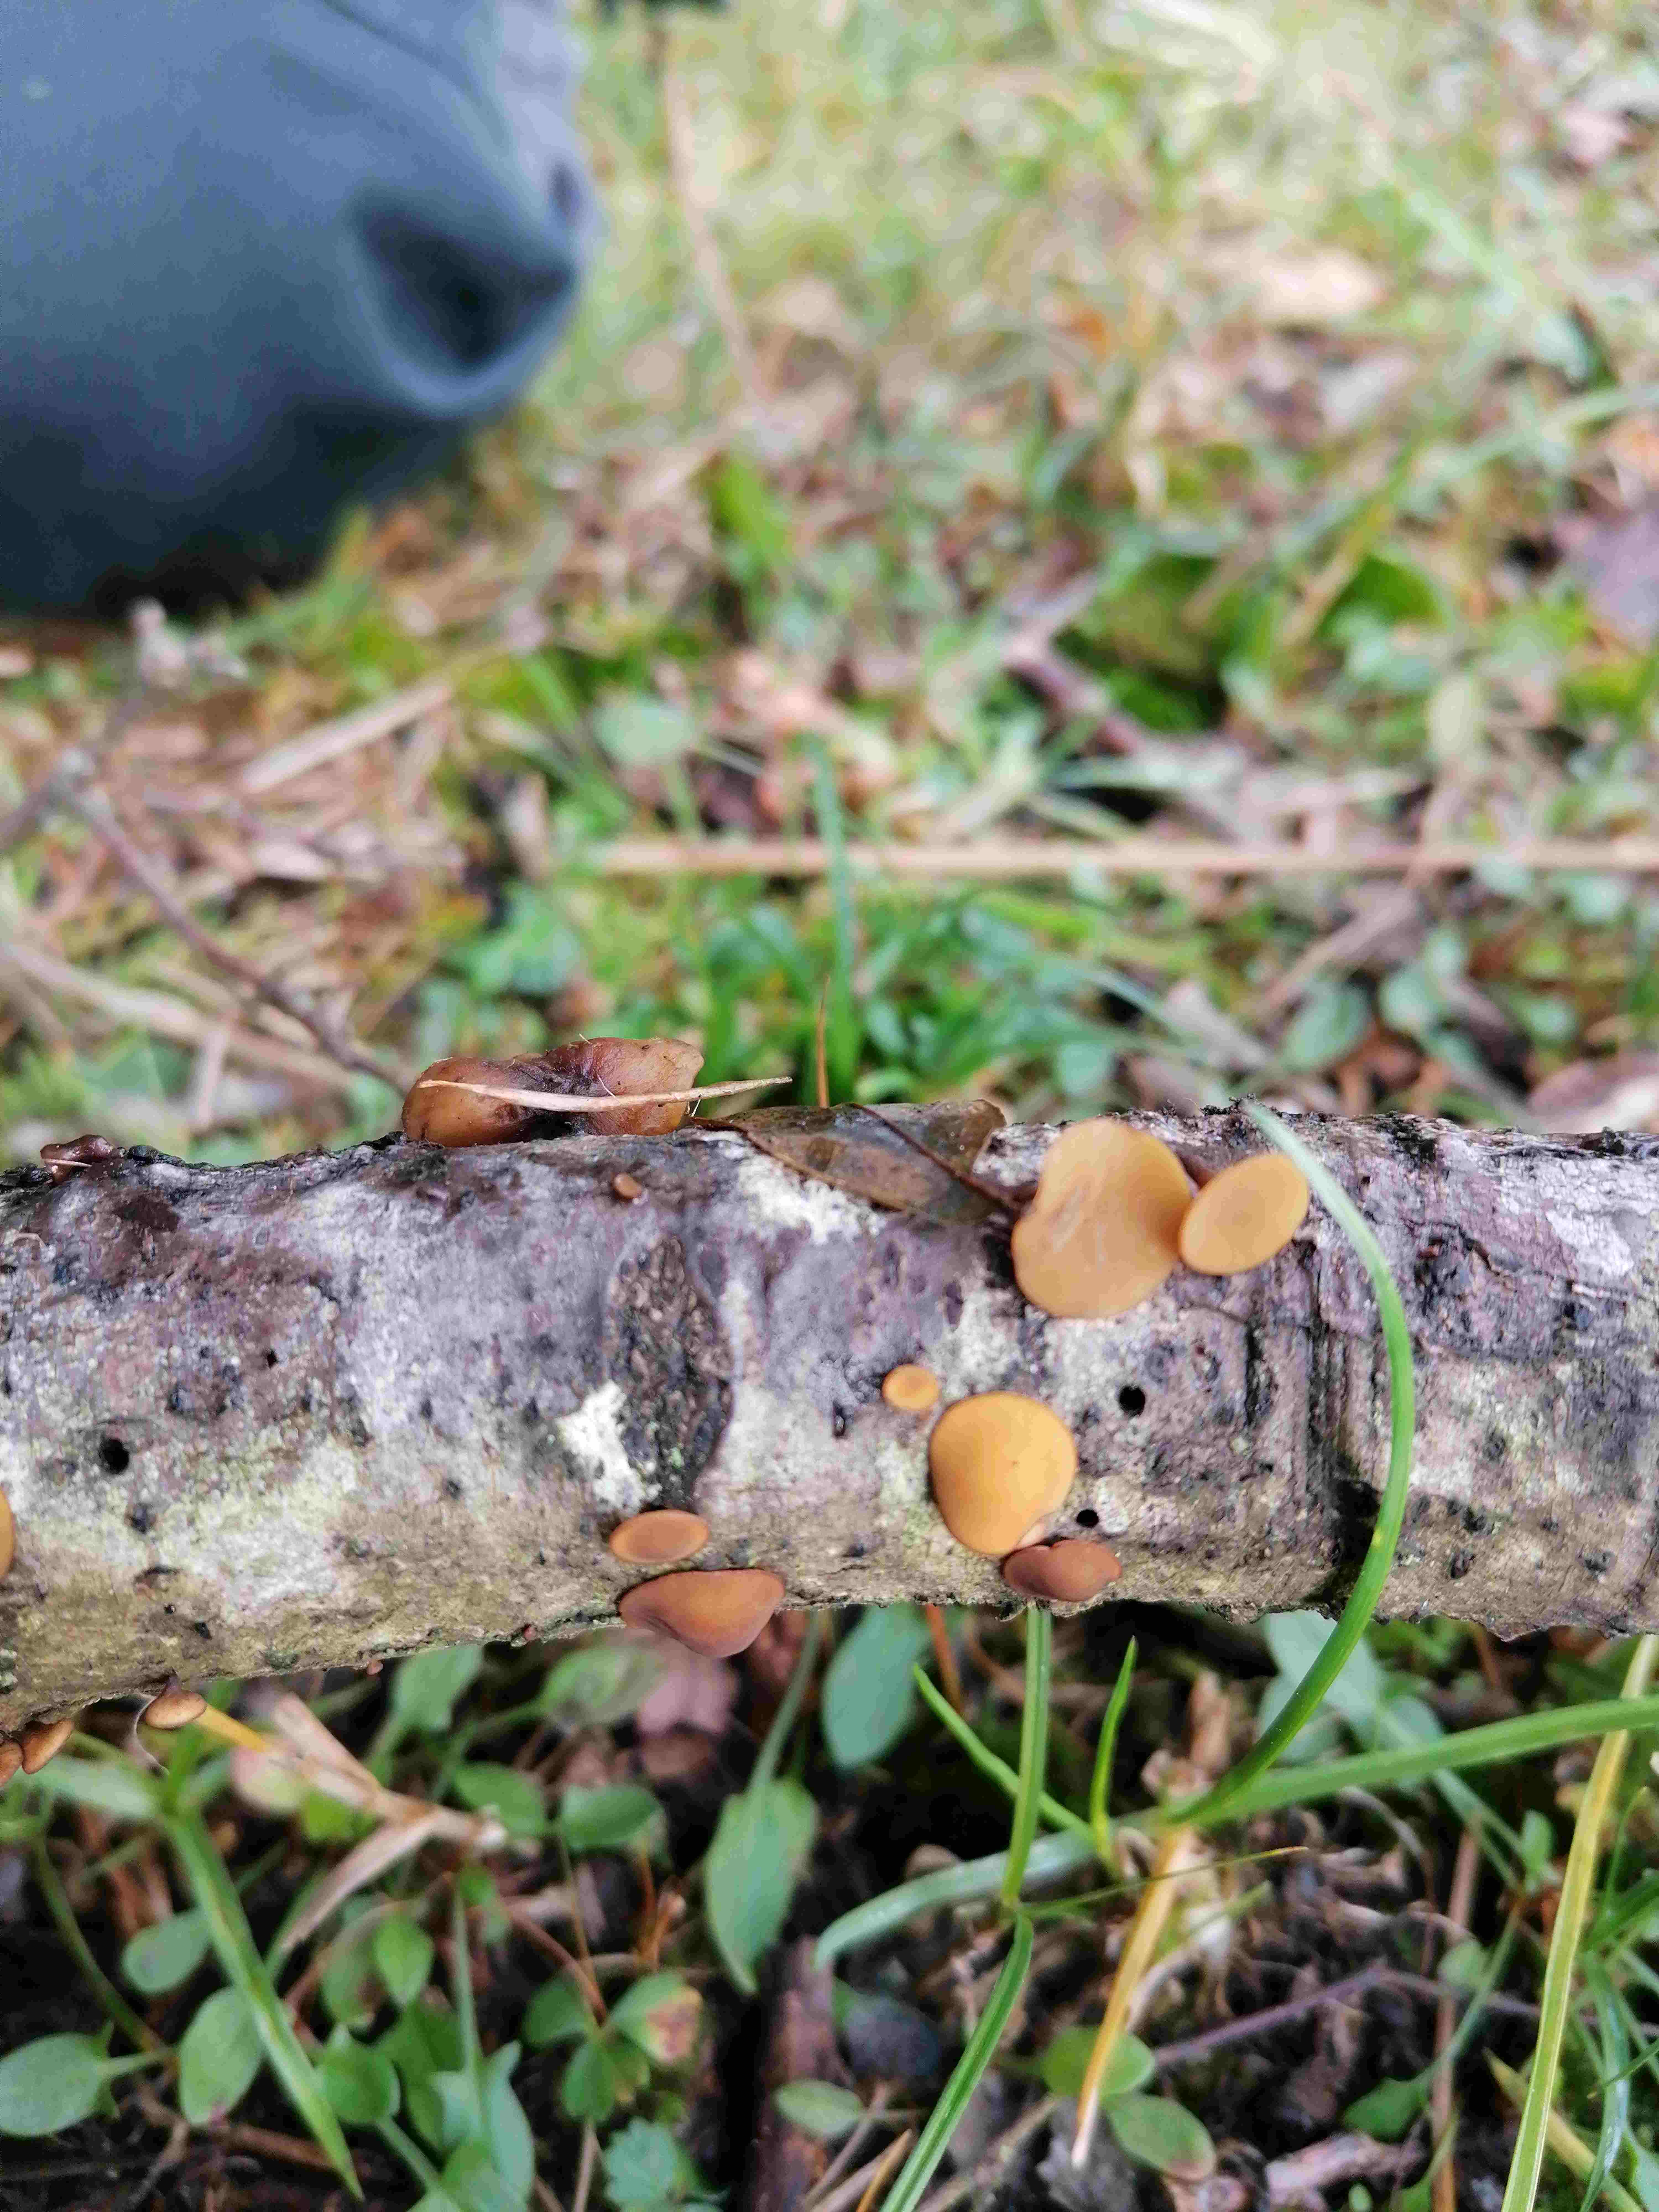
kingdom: Fungi
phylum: Ascomycota
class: Leotiomycetes
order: Helotiales
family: Rutstroemiaceae
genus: Rutstroemia
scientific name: Rutstroemia firma
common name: gren-brunskive
